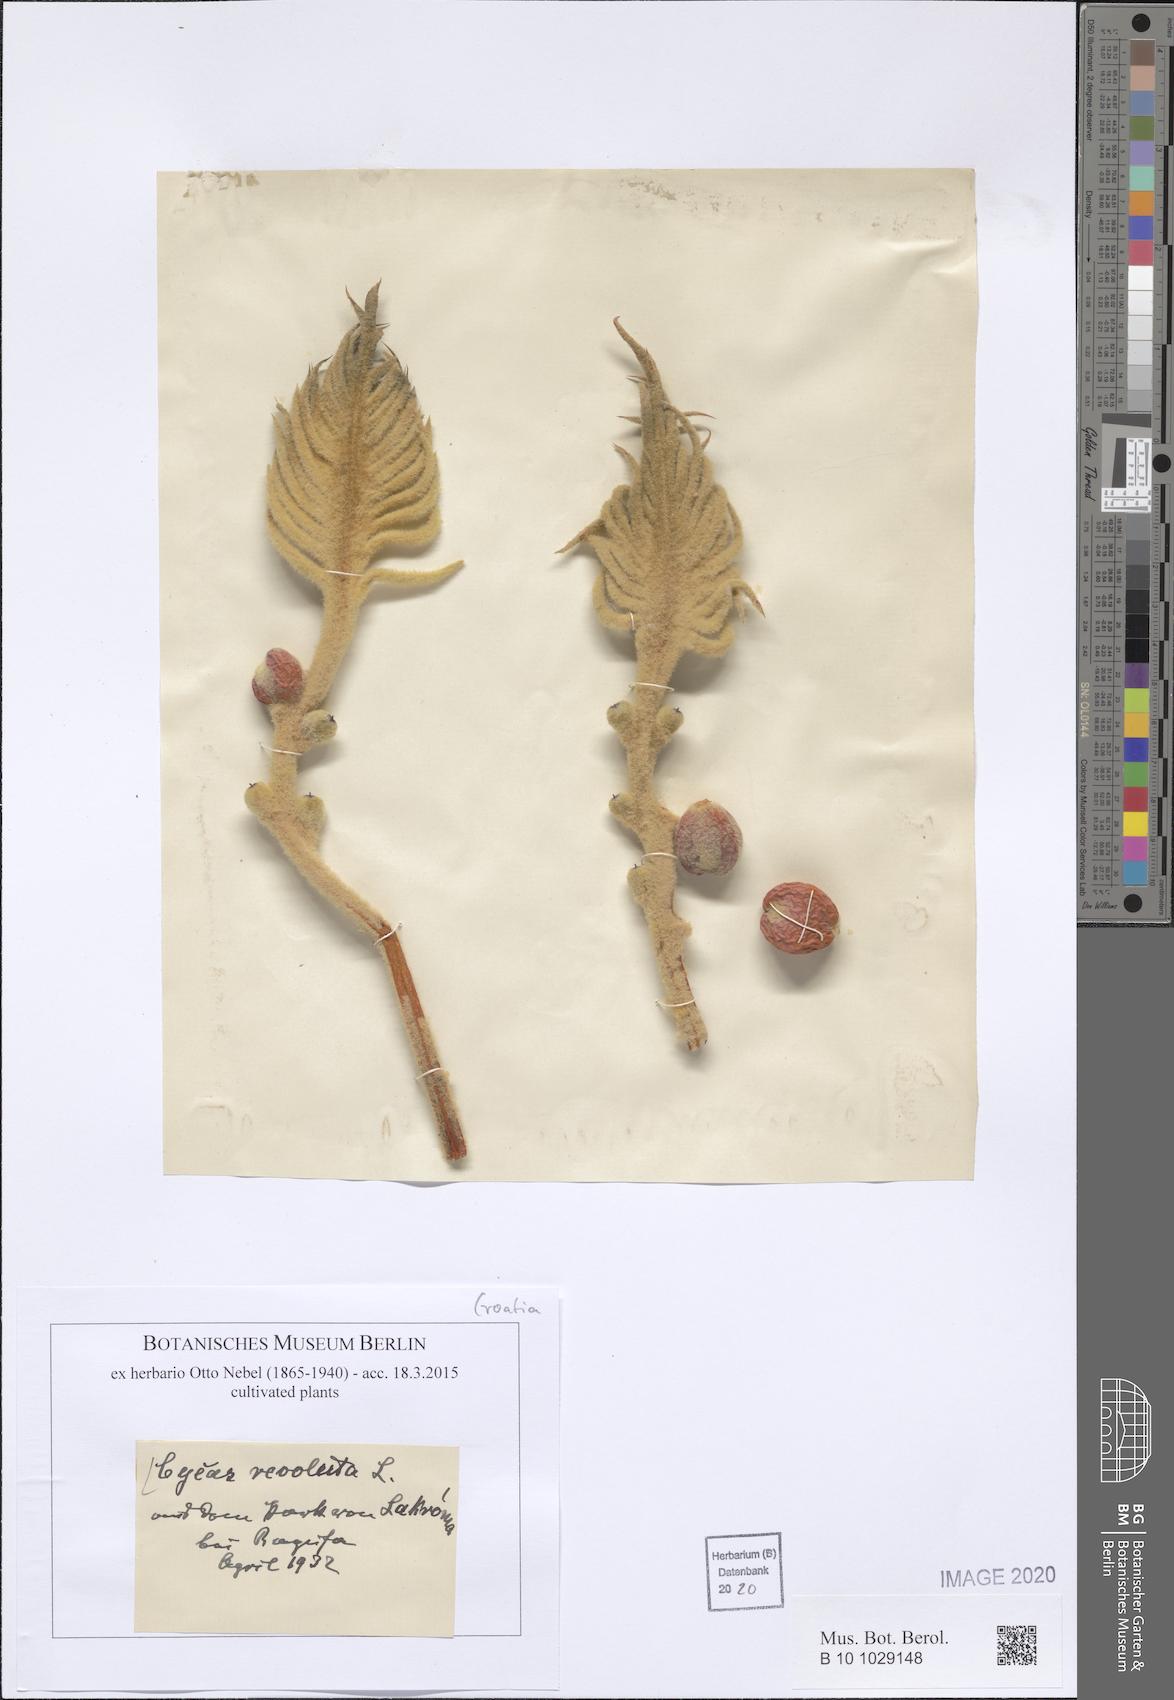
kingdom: Plantae
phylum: Tracheophyta
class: Cycadopsida
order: Cycadales
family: Cycadaceae
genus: Cycas
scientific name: Cycas revoluta
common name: Sago palm
